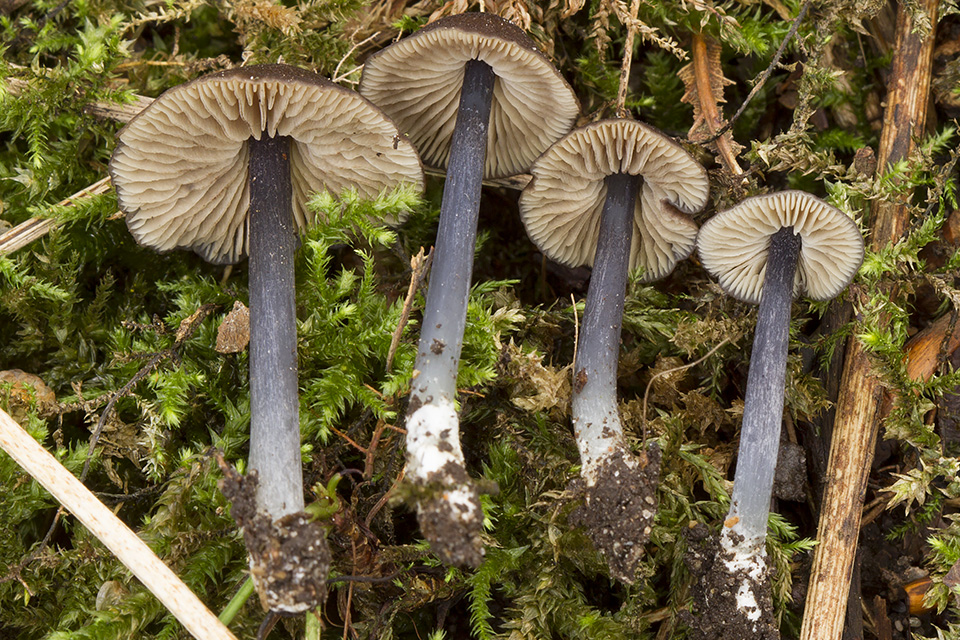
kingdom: Fungi
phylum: Basidiomycota
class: Agaricomycetes
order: Agaricales
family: Entolomataceae
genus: Entoloma
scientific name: Entoloma indikon
